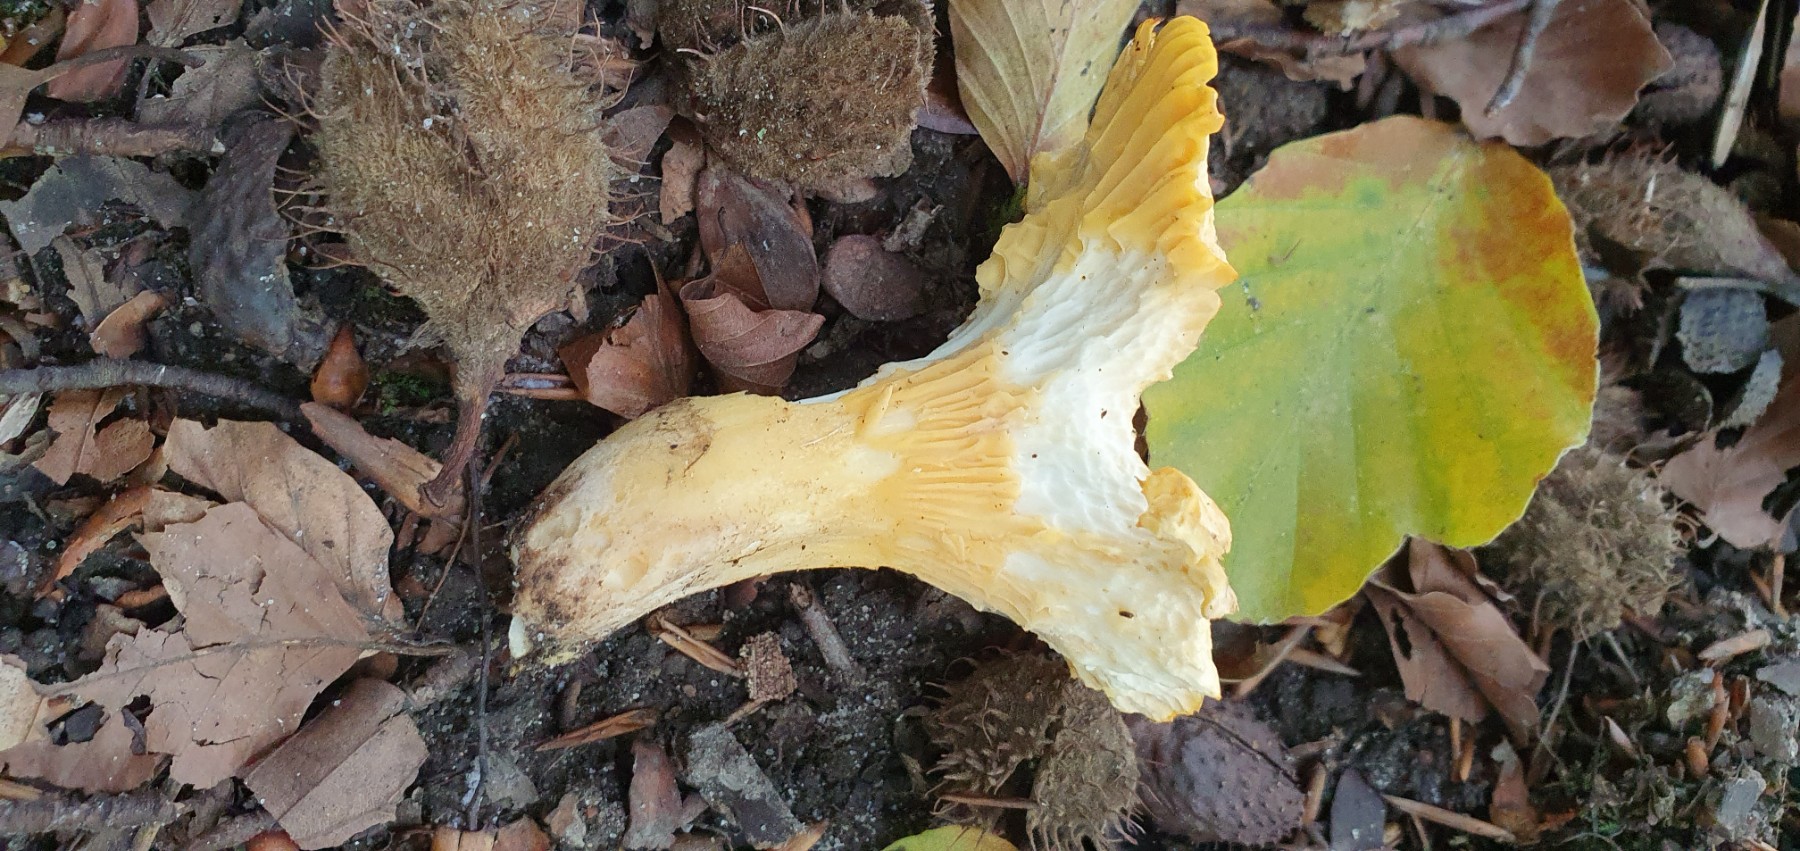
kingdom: Fungi
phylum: Basidiomycota
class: Agaricomycetes
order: Cantharellales
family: Hydnaceae
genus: Cantharellus
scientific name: Cantharellus
